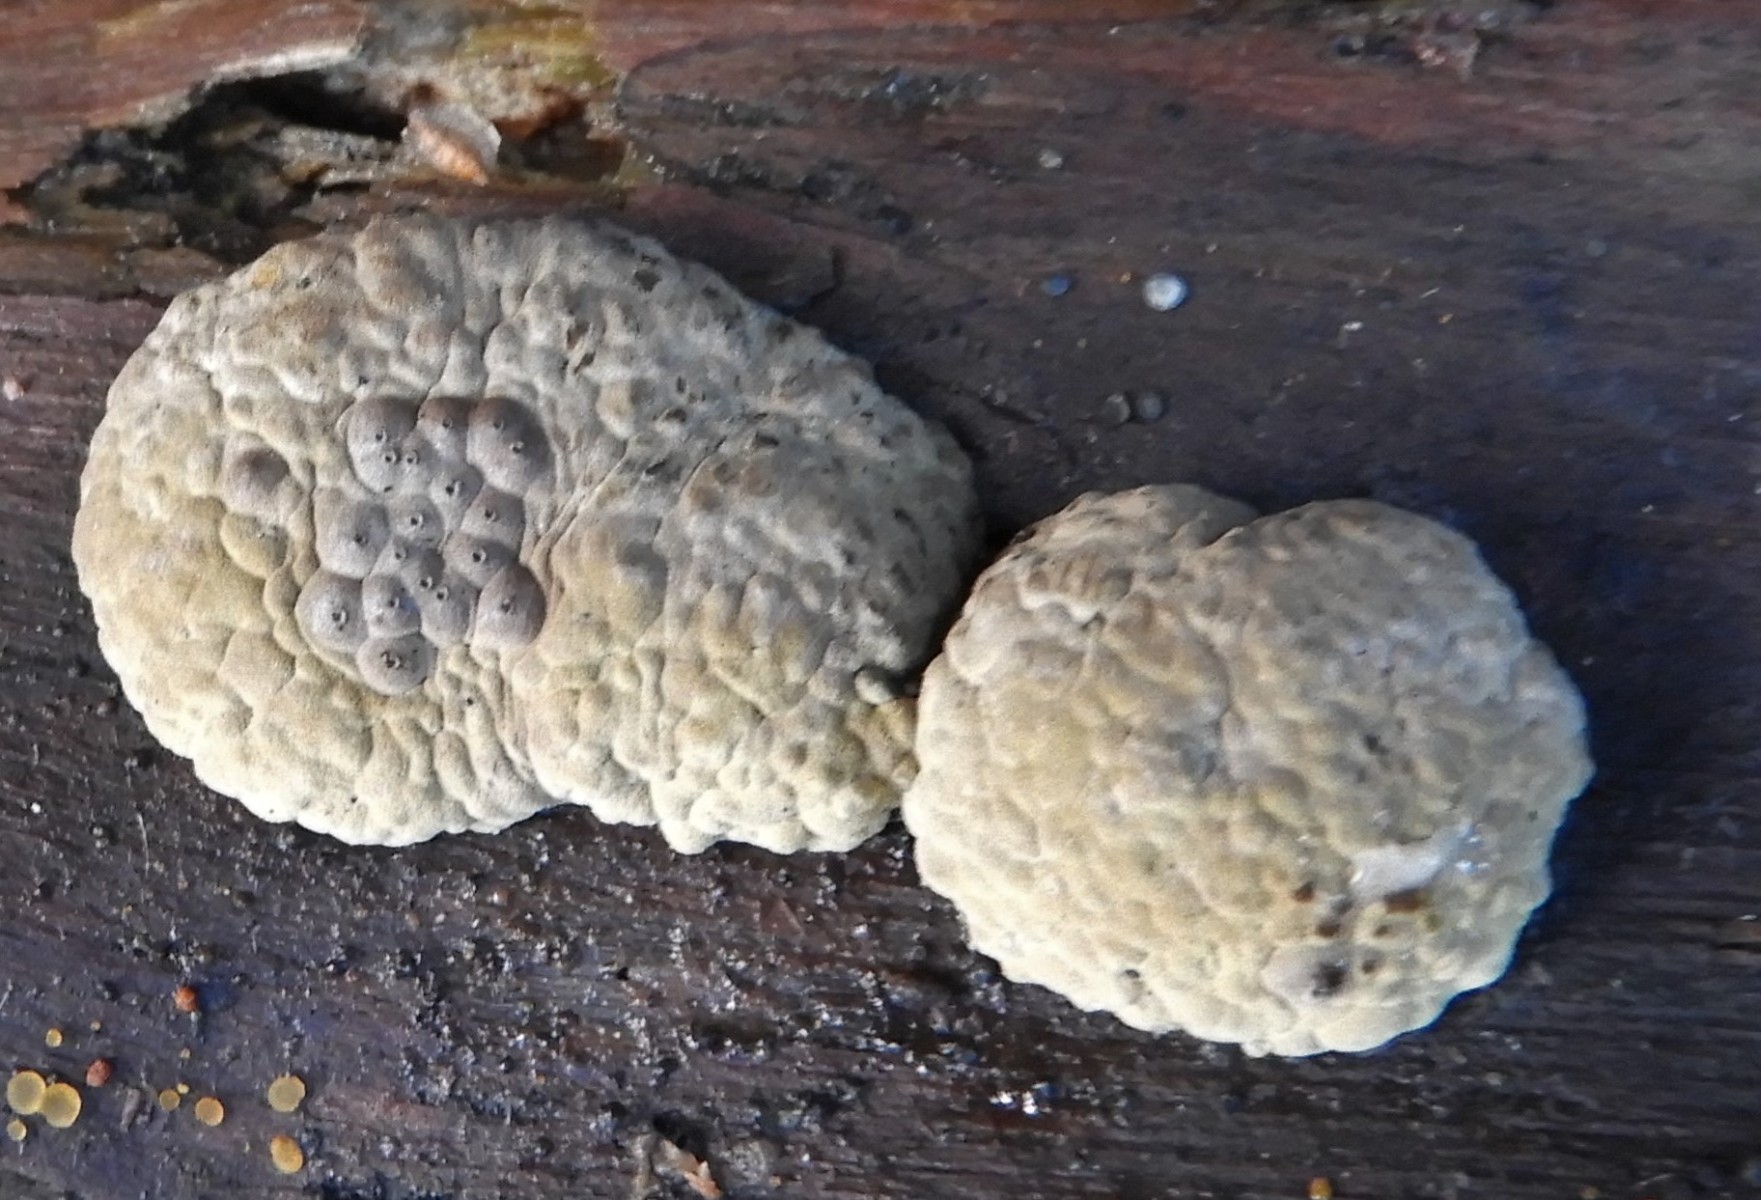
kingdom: Fungi
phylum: Ascomycota
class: Sordariomycetes
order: Xylariales
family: Hypoxylaceae
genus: Jackrogersella
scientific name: Jackrogersella multiformis
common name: foranderlig kulbær
